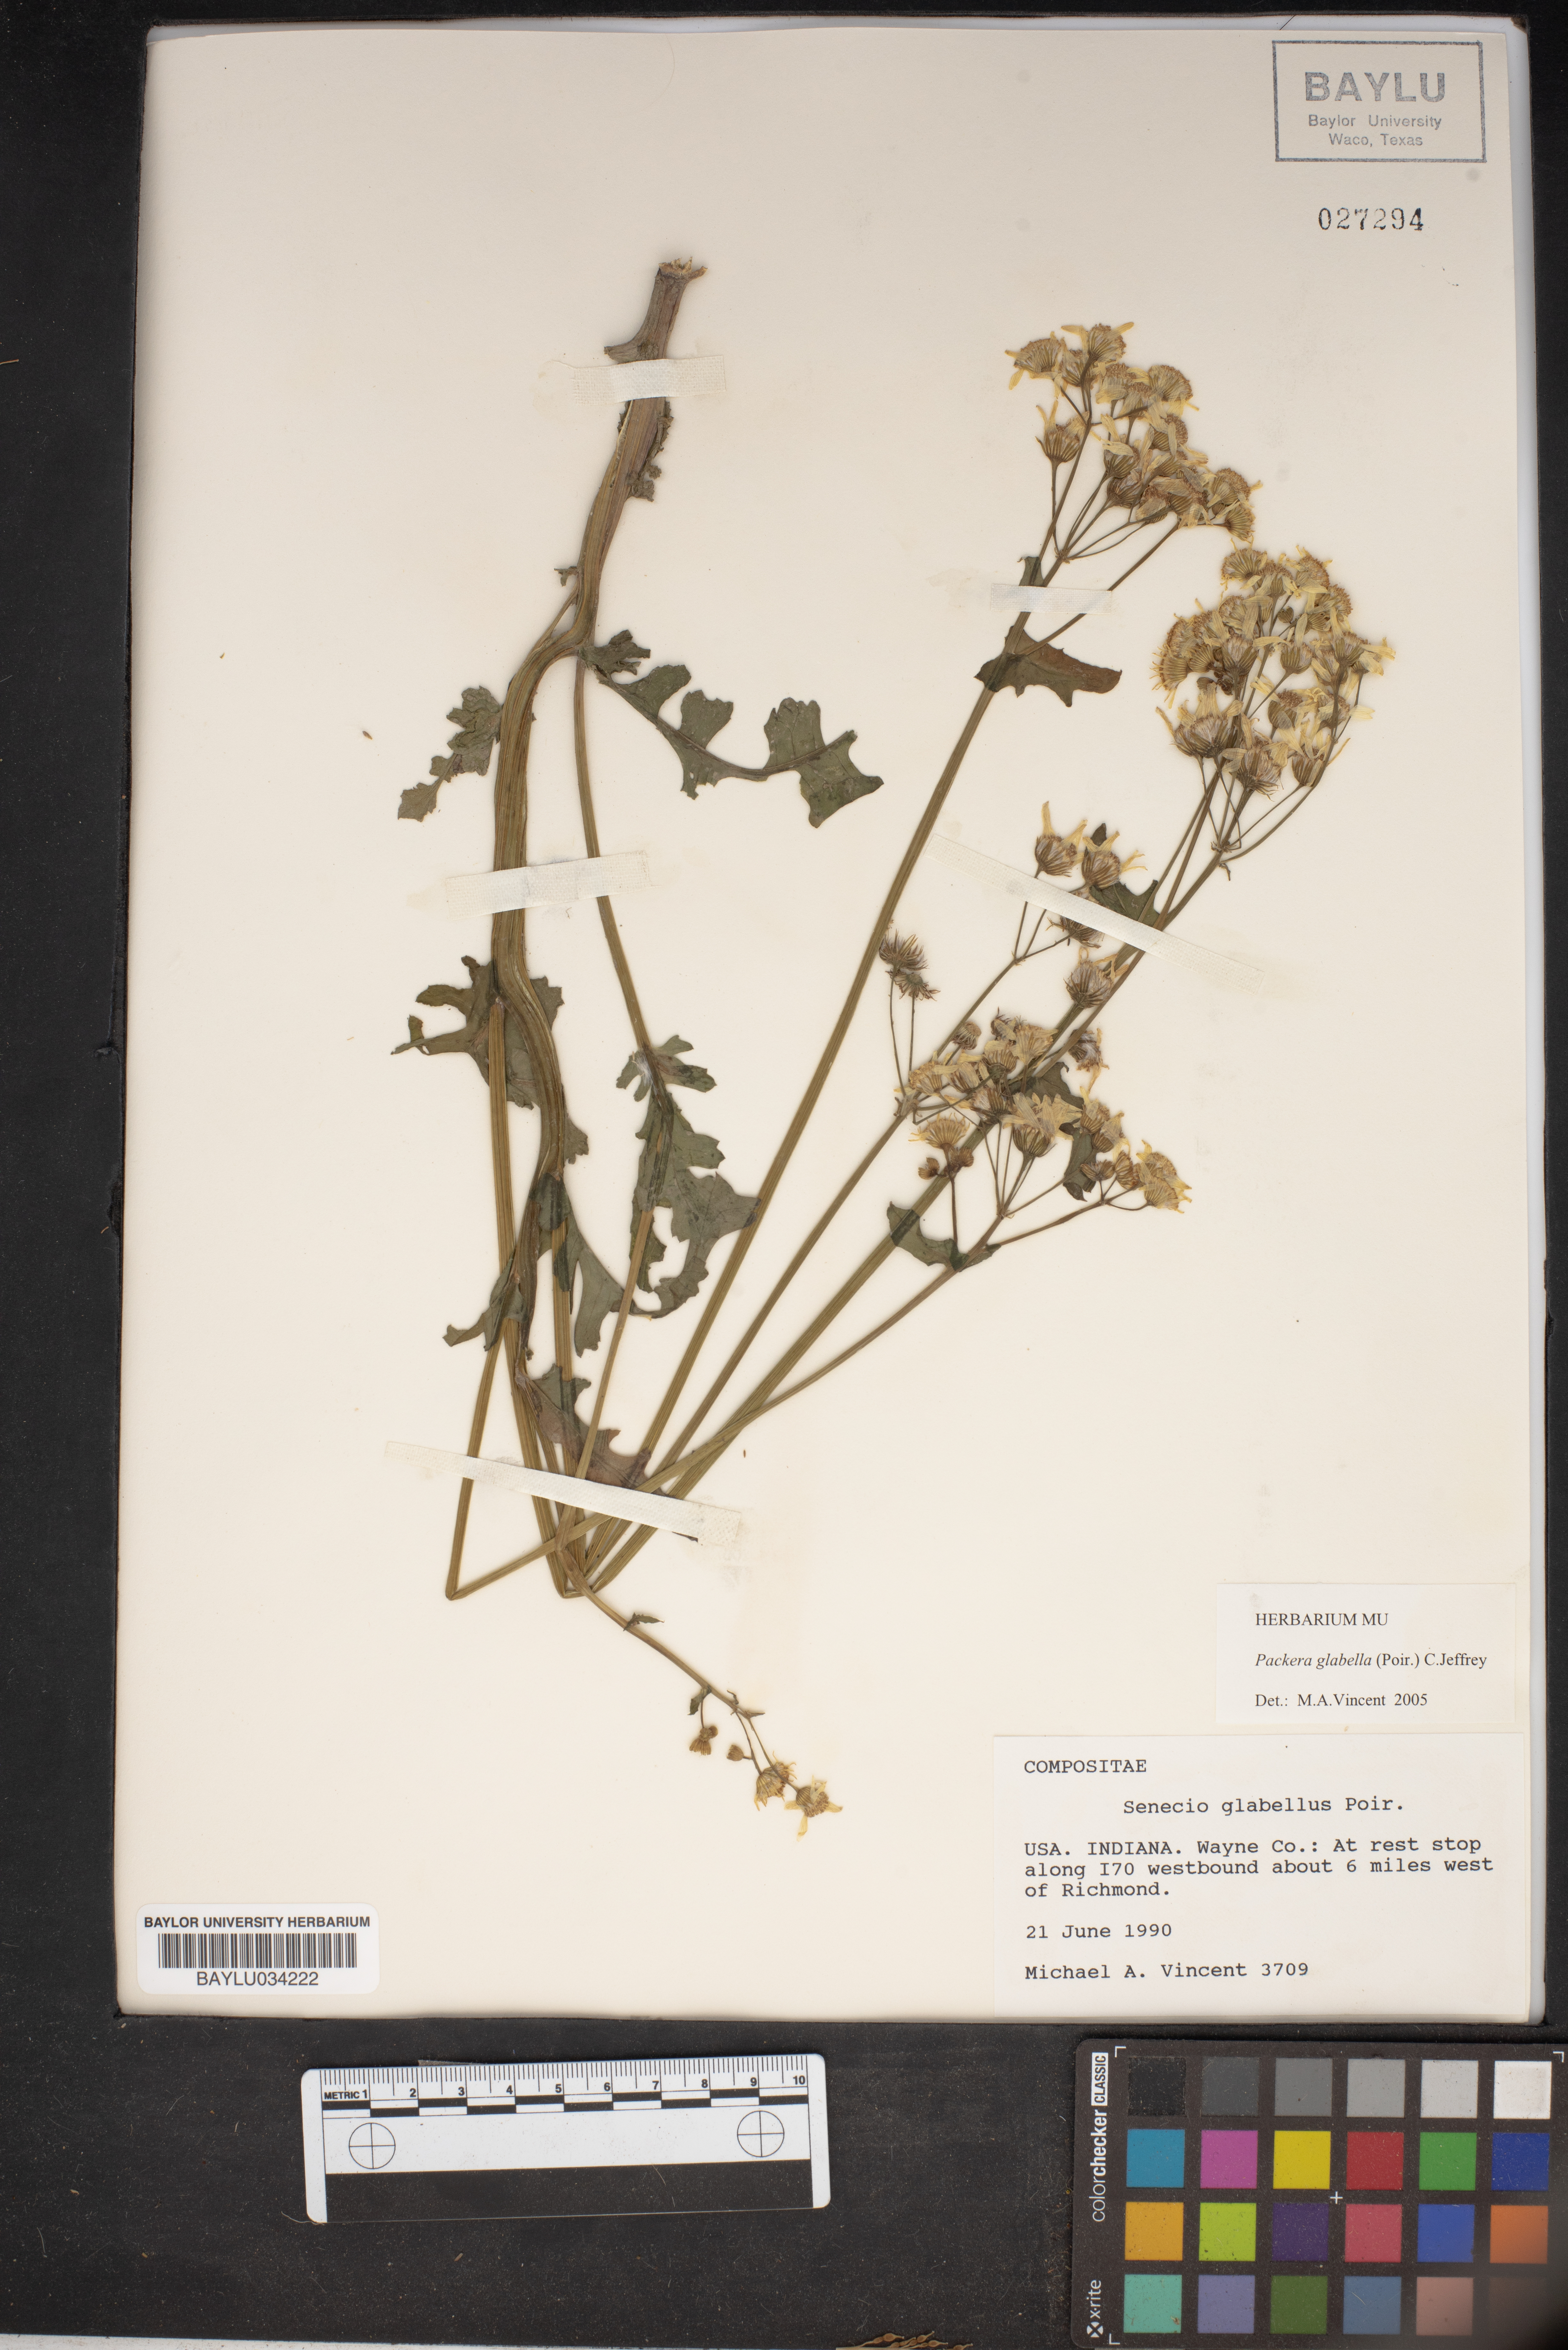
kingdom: Plantae
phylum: Tracheophyta
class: Magnoliopsida
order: Asterales
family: Asteraceae
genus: Packera
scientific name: Packera glabella
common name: Butterweed
